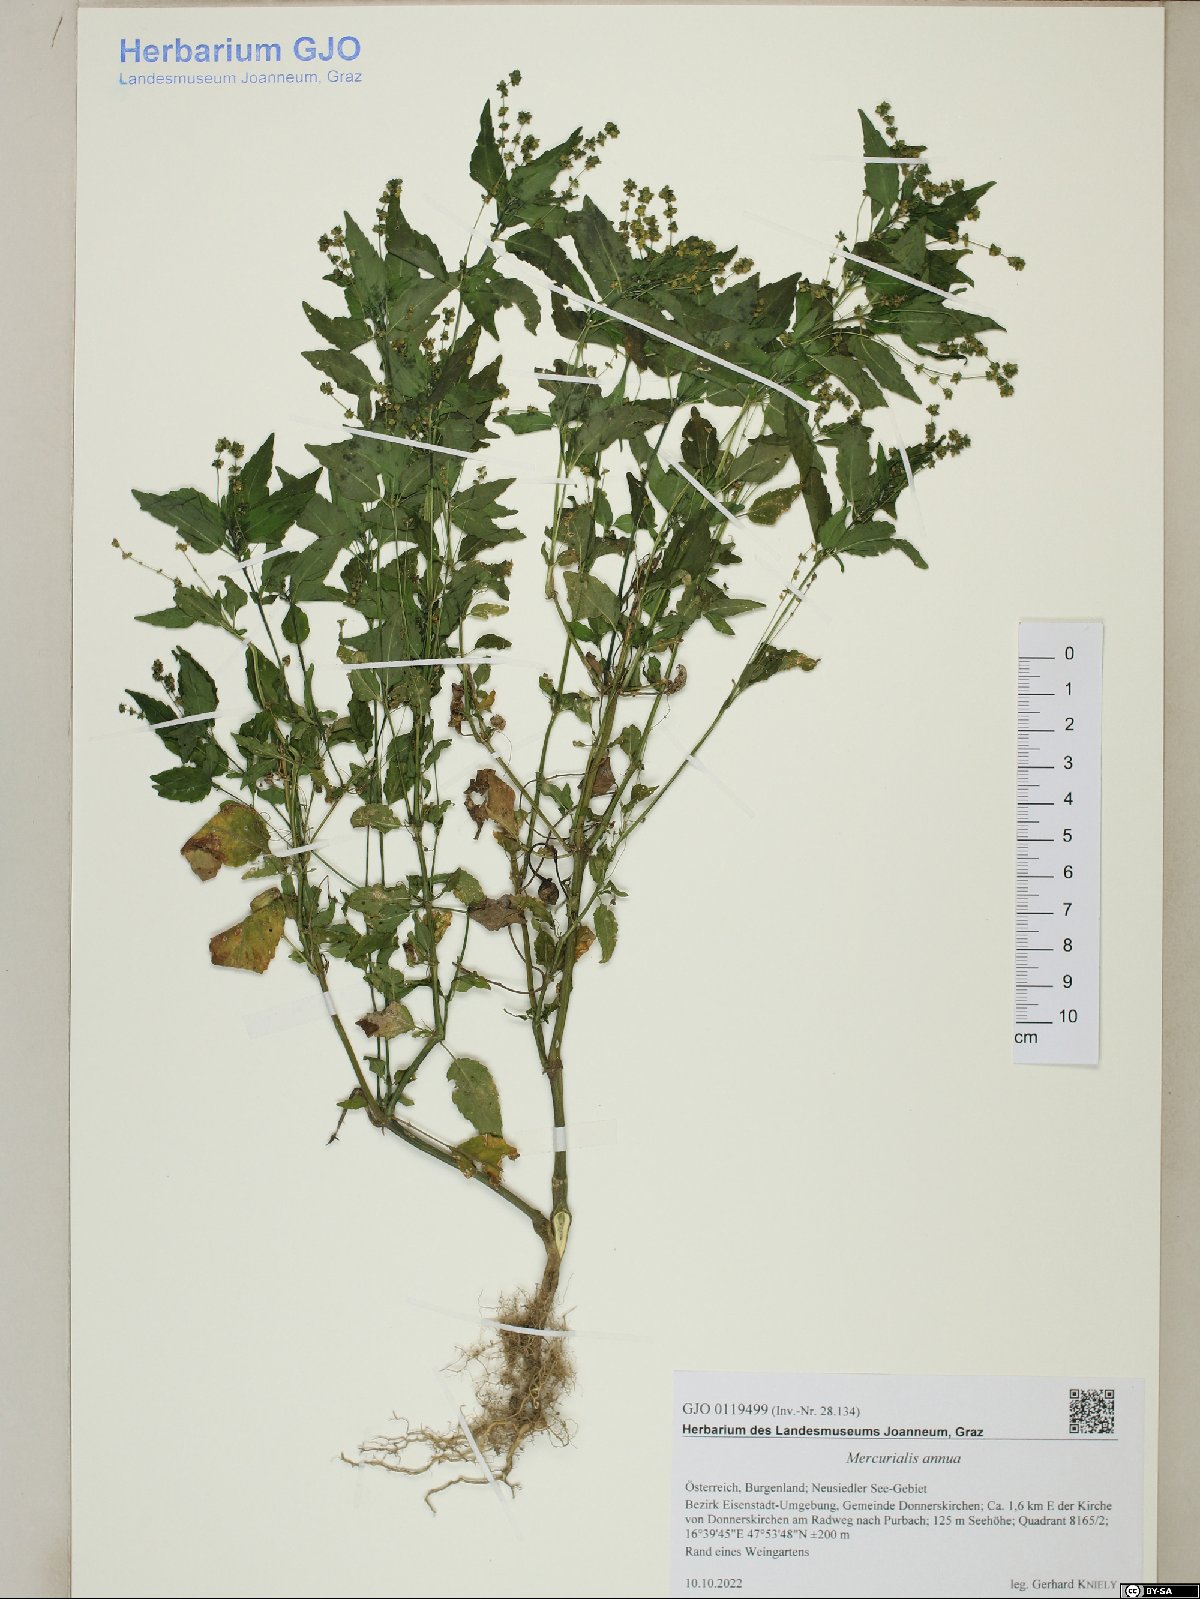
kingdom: Plantae
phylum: Tracheophyta
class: Magnoliopsida
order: Malpighiales
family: Euphorbiaceae
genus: Mercurialis
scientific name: Mercurialis annua
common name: Annual mercury
